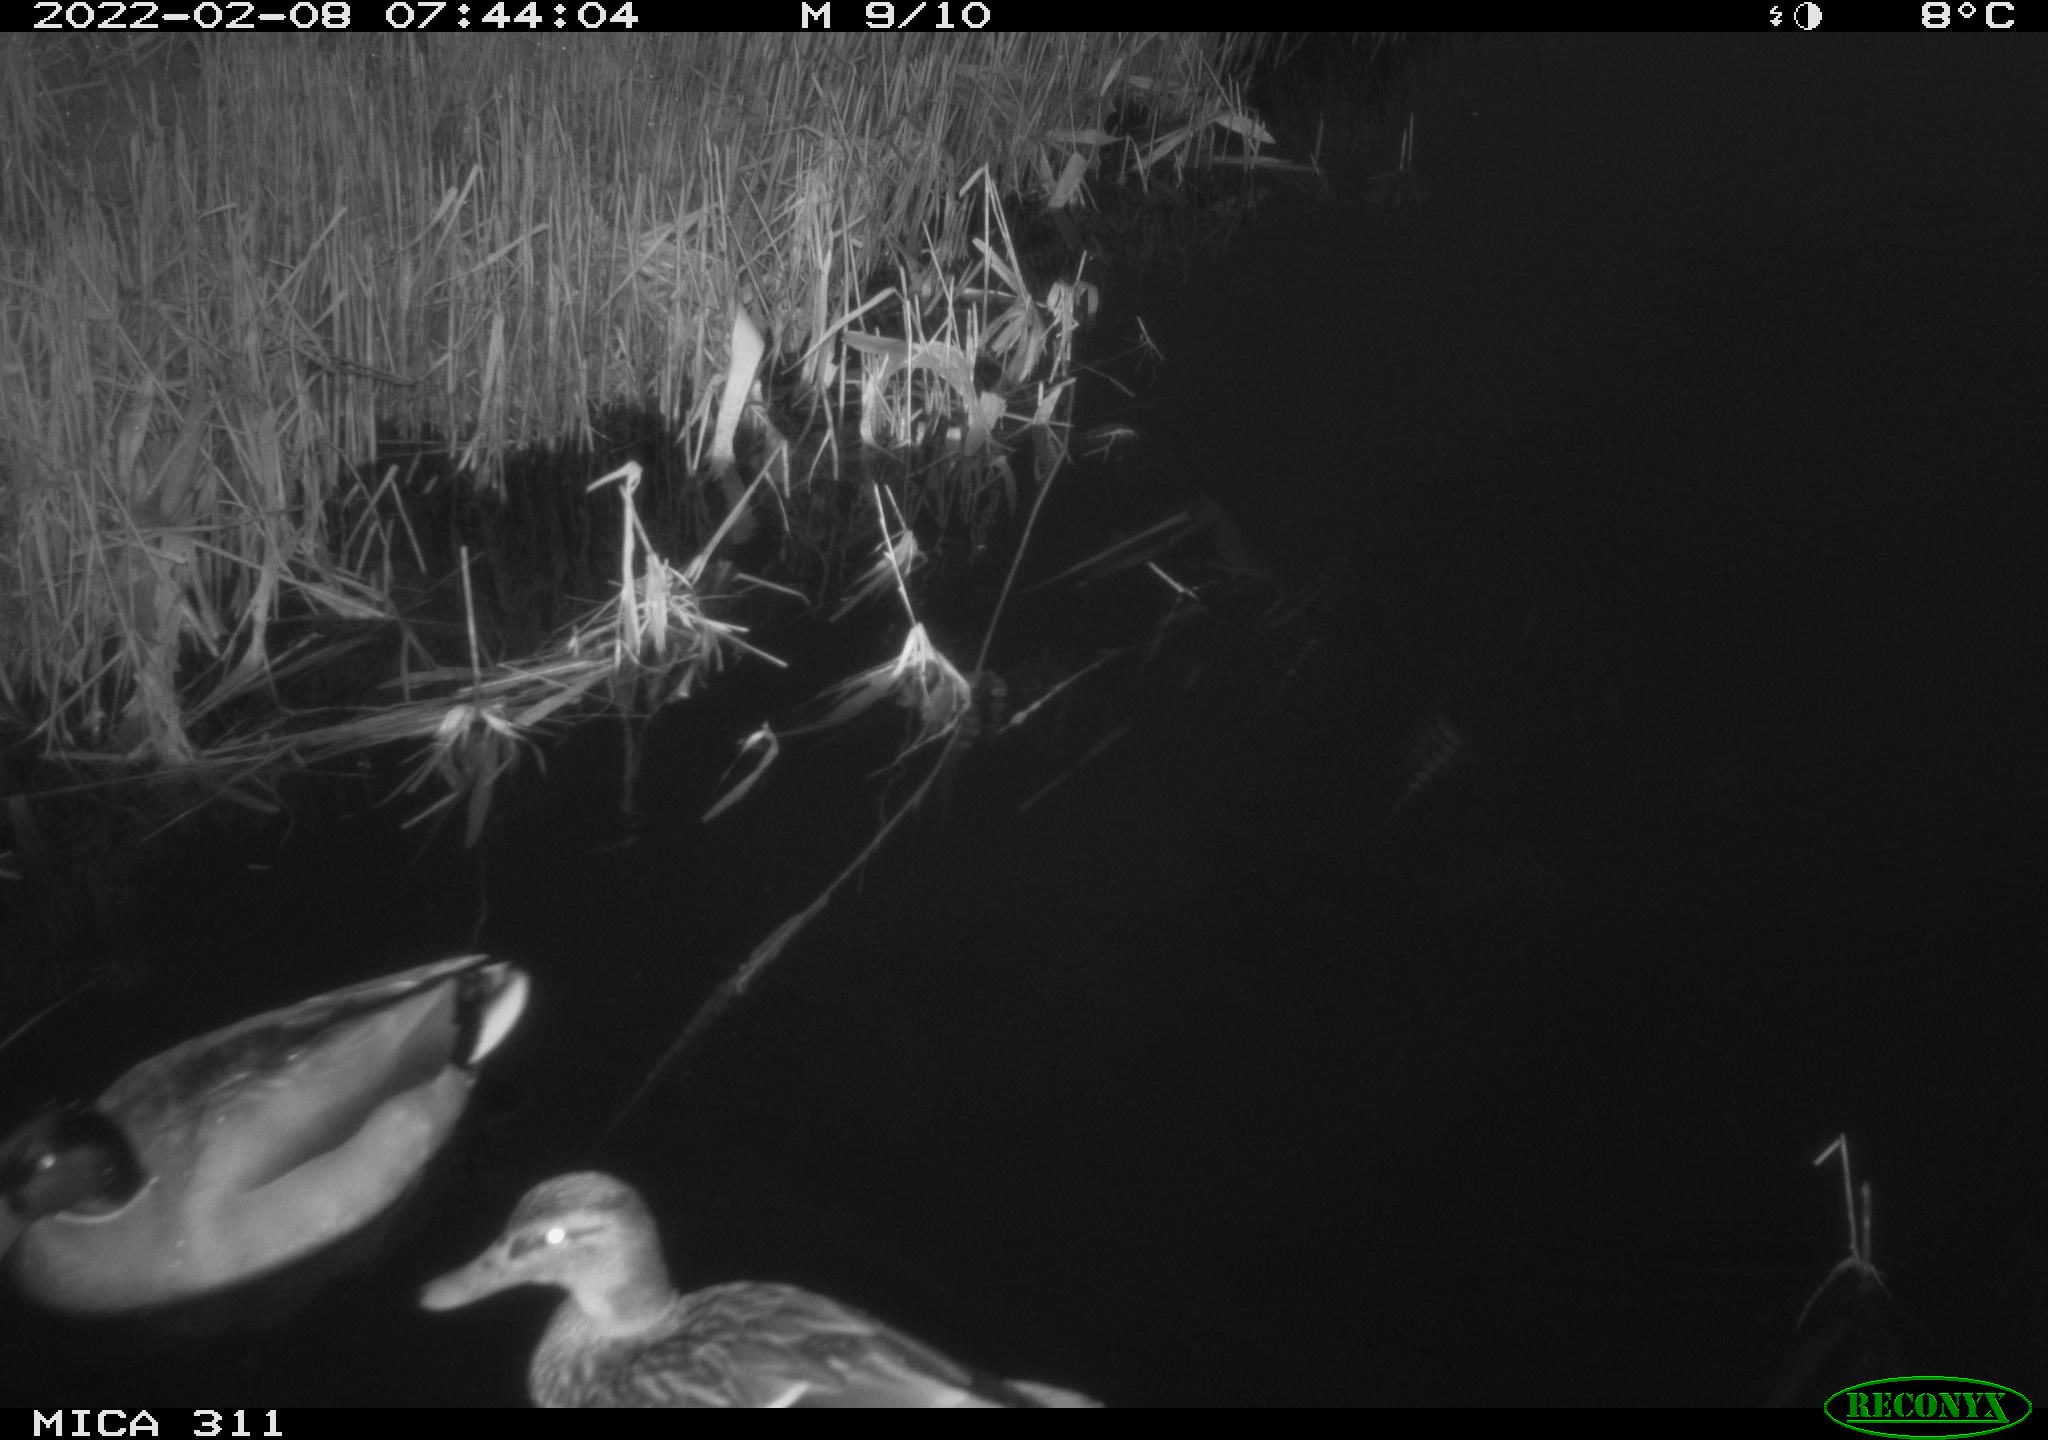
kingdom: Animalia
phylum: Chordata
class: Aves
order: Anseriformes
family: Anatidae
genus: Anas
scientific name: Anas
